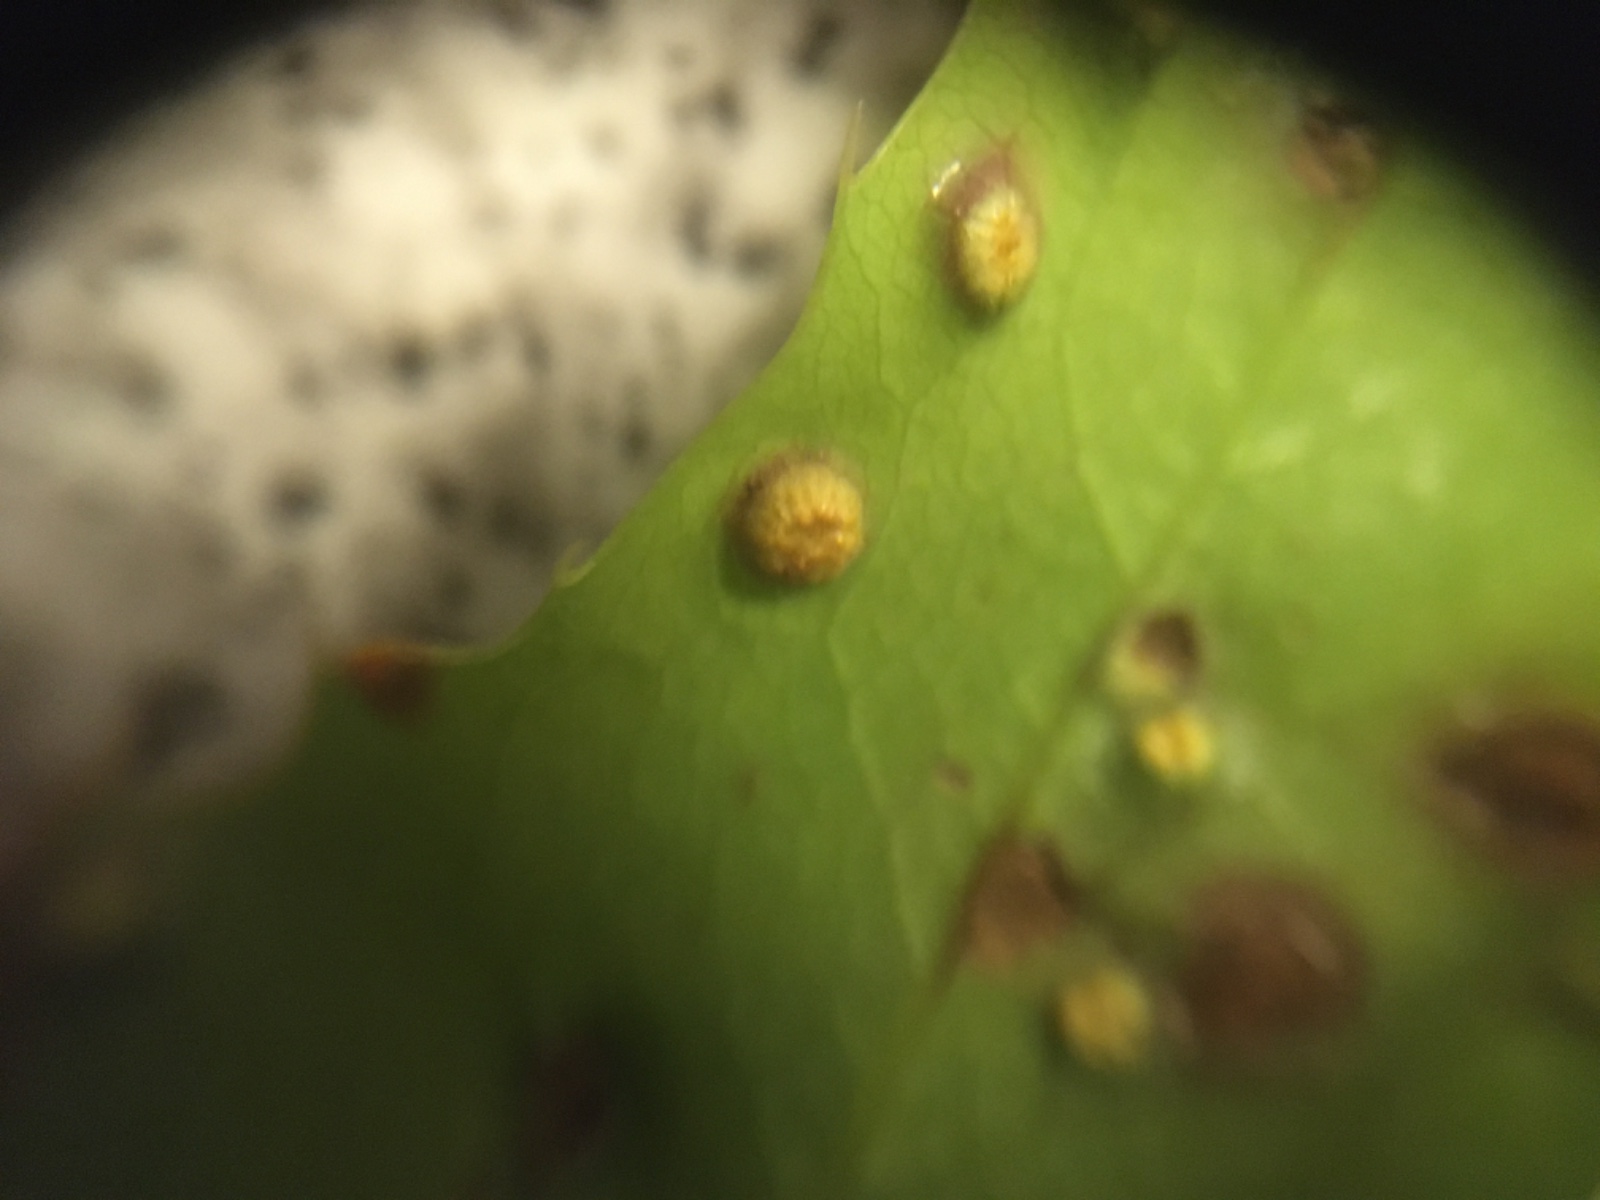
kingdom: Fungi
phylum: Basidiomycota
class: Pucciniomycetes
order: Pucciniales
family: Pucciniaceae
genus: Cumminsiella
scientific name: Cumminsiella mirabilissima
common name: mahonierust
